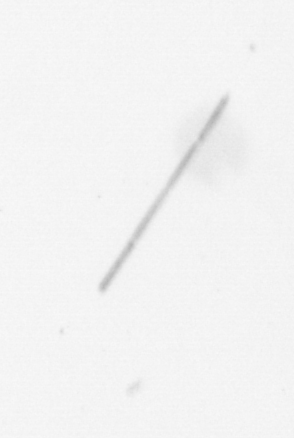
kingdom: Chromista
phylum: Ochrophyta
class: Bacillariophyceae
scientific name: Bacillariophyceae
